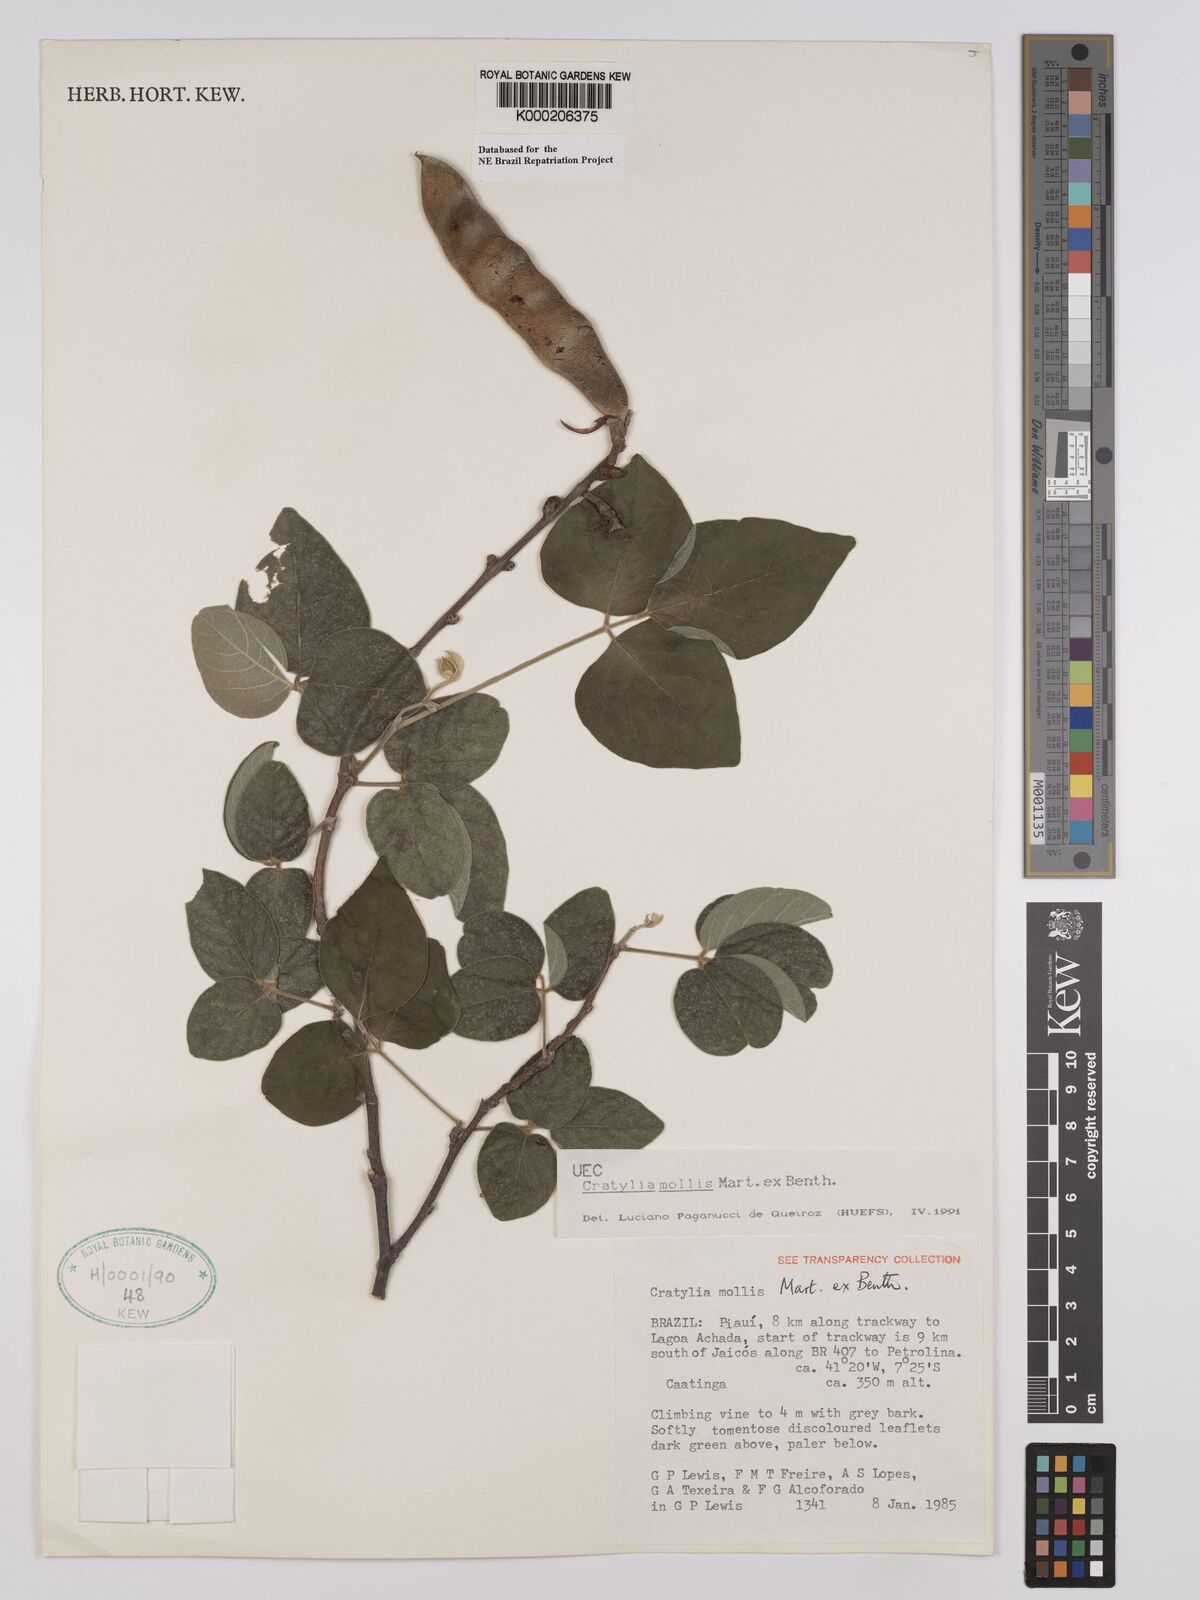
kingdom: Plantae
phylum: Tracheophyta
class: Magnoliopsida
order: Fabales
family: Fabaceae
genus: Cratylia
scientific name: Cratylia mollis
